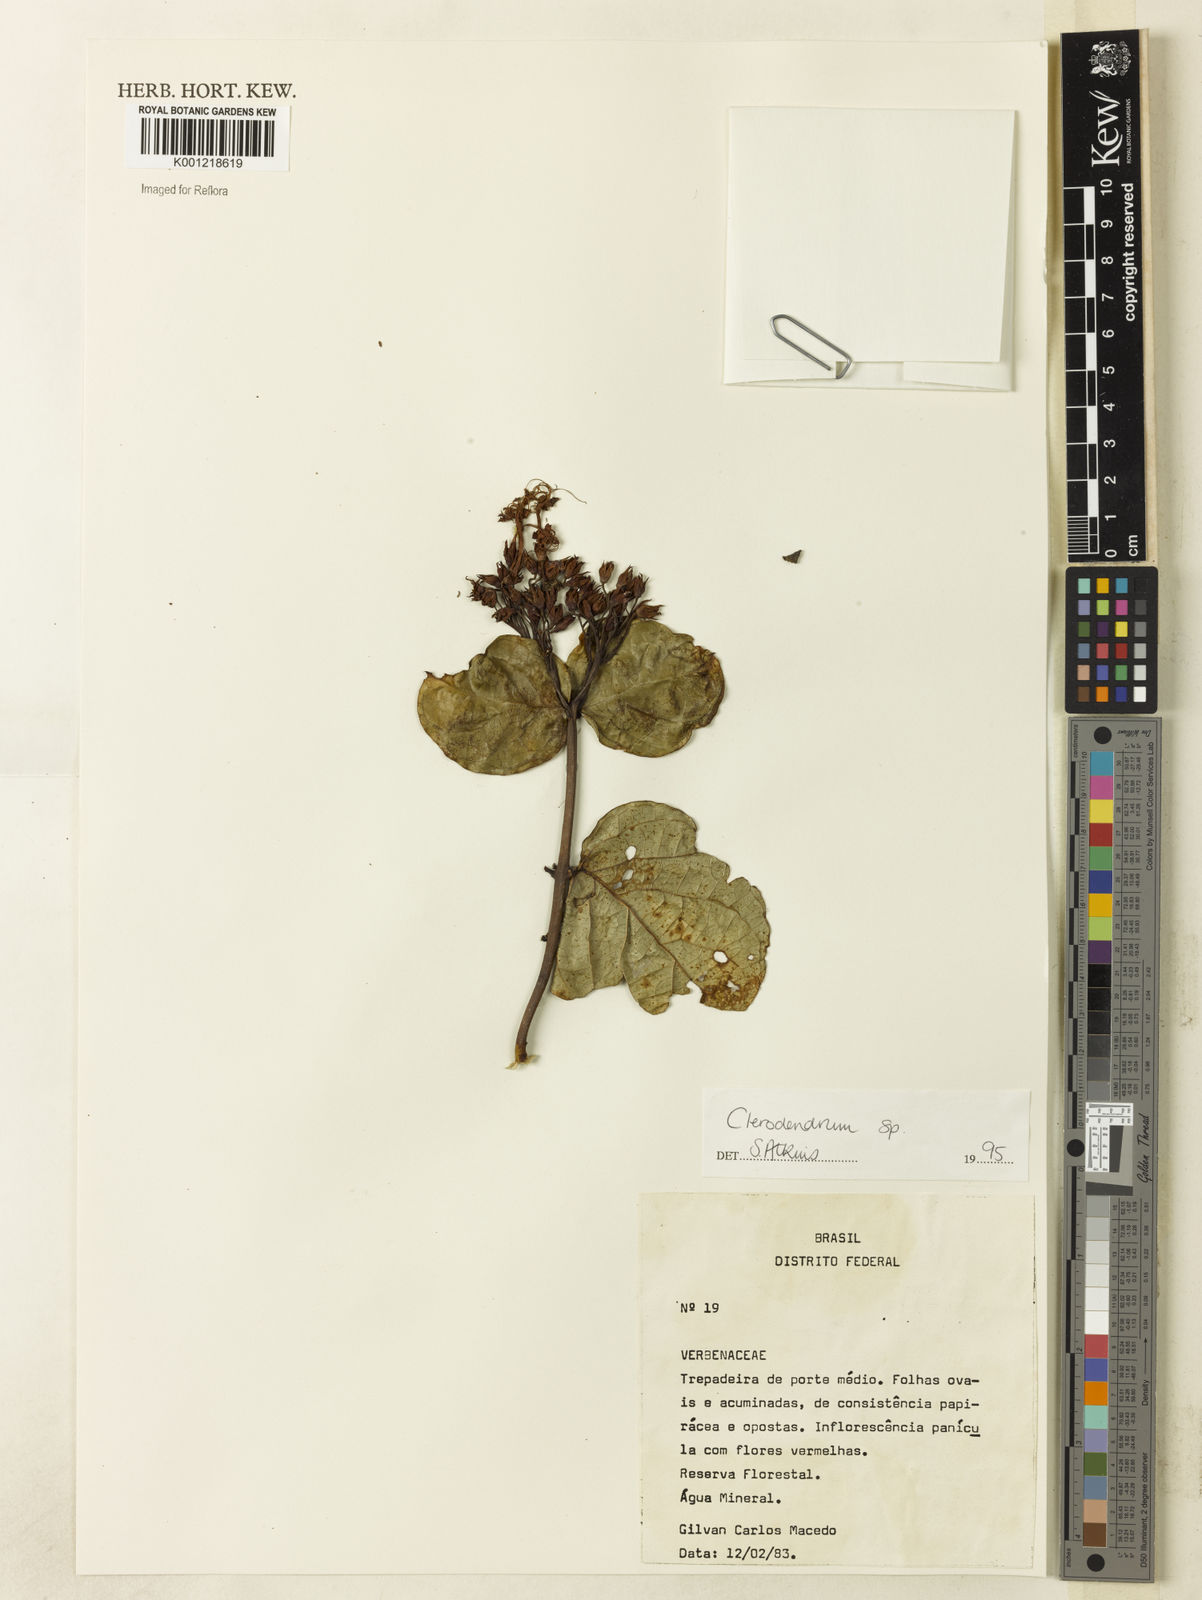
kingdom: Plantae
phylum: Tracheophyta
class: Magnoliopsida
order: Lamiales
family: Lamiaceae
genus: Clerodendrum
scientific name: Clerodendrum
